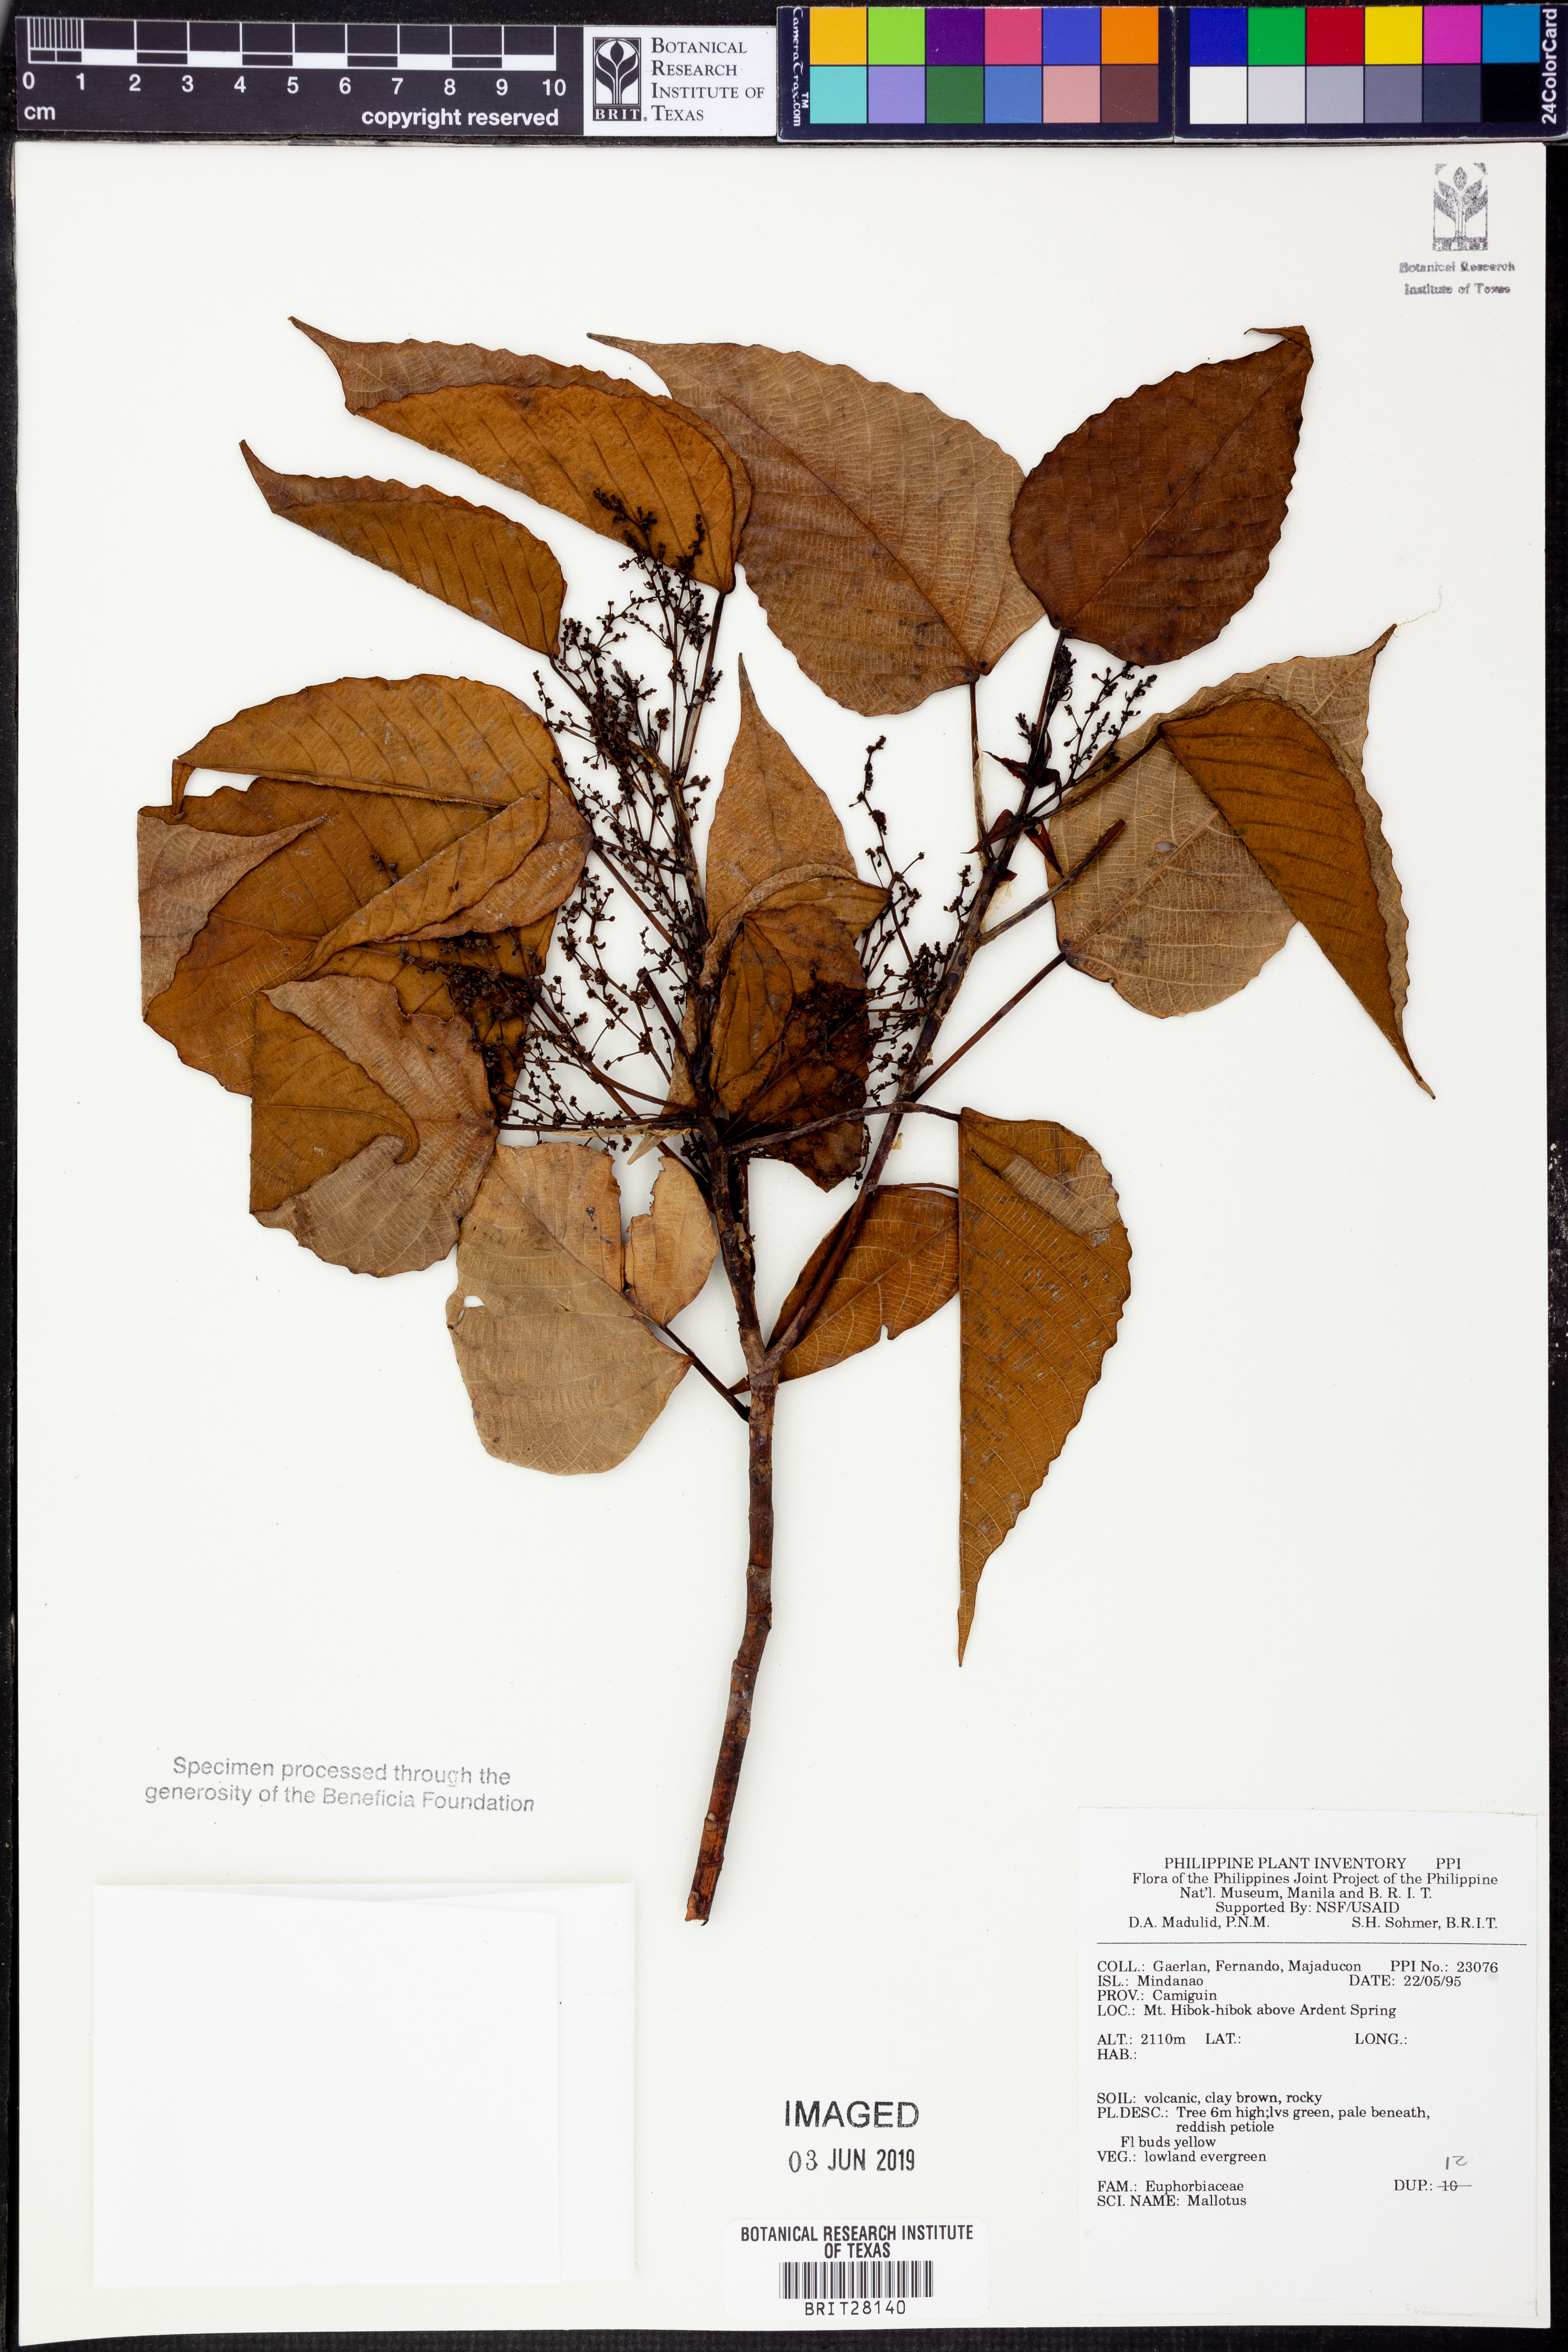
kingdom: Plantae
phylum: Tracheophyta
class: Magnoliopsida
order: Malpighiales
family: Euphorbiaceae
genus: Mallotus
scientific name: Mallotus
